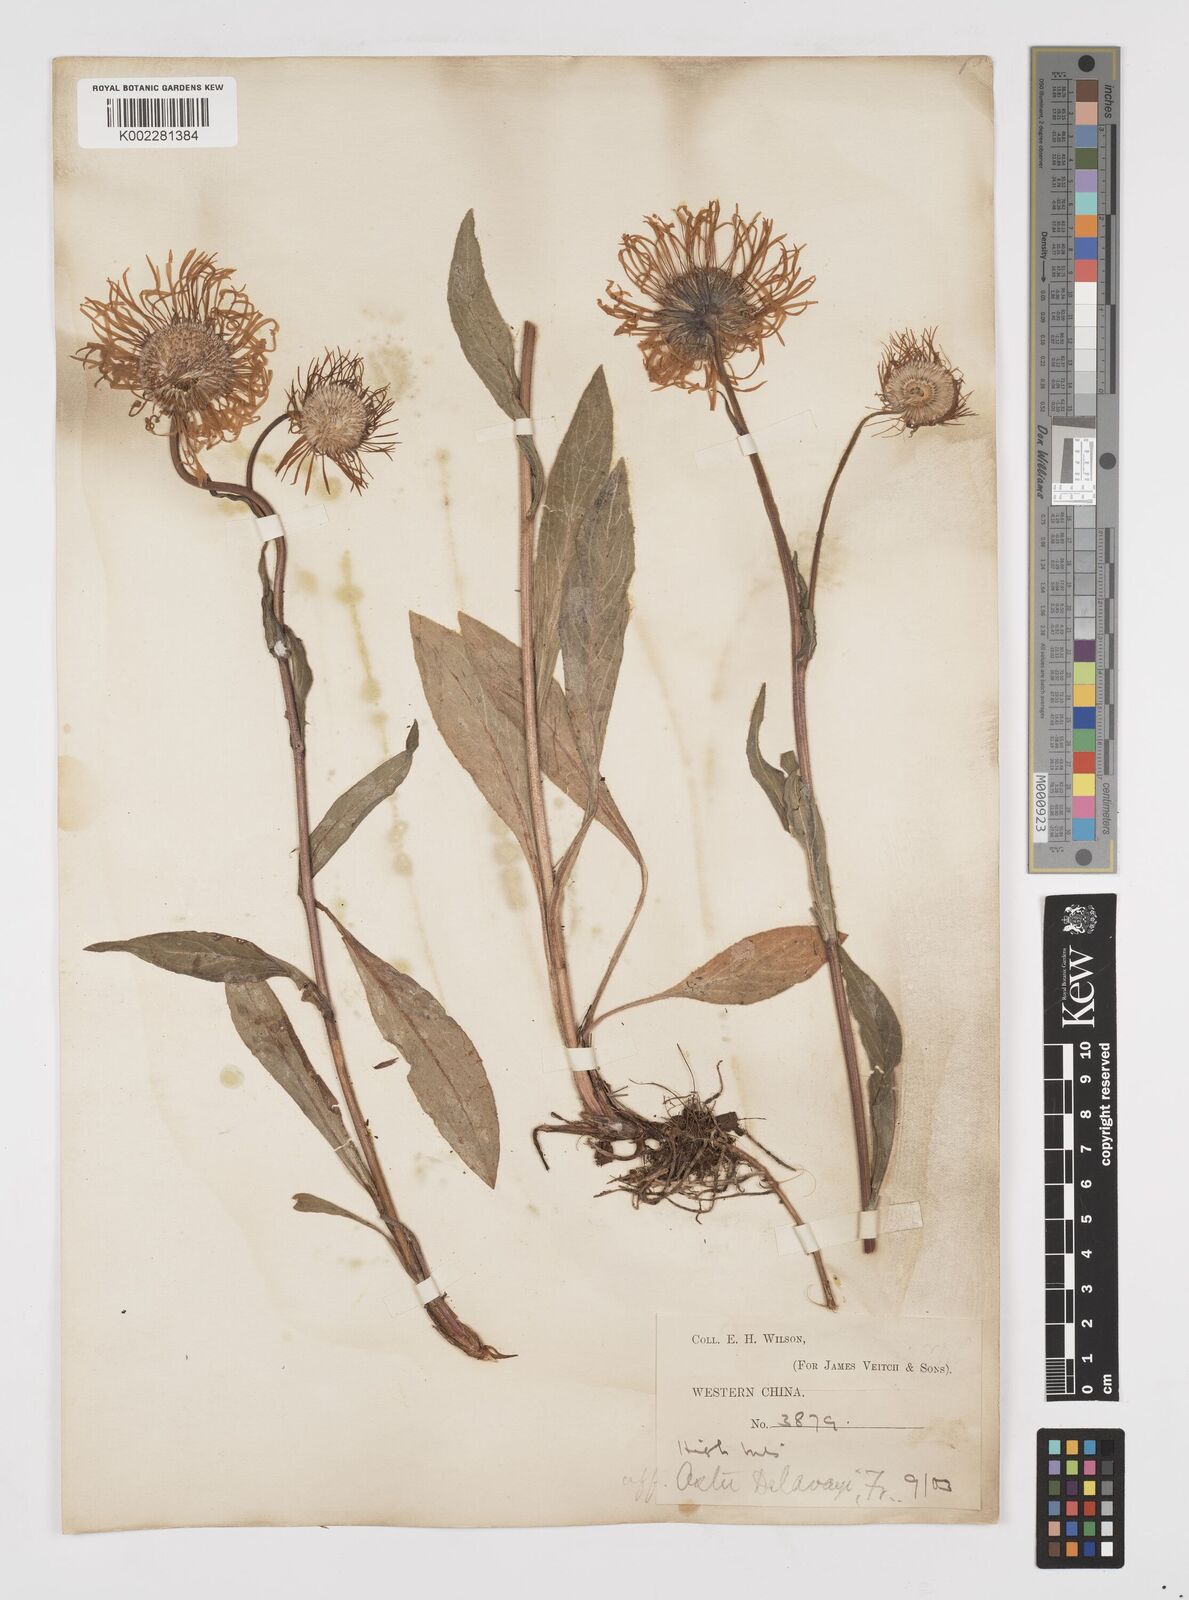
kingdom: Plantae
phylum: Tracheophyta
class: Magnoliopsida
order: Asterales
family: Asteraceae
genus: Tibetiodes
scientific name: Tibetiodes diplostephioides
